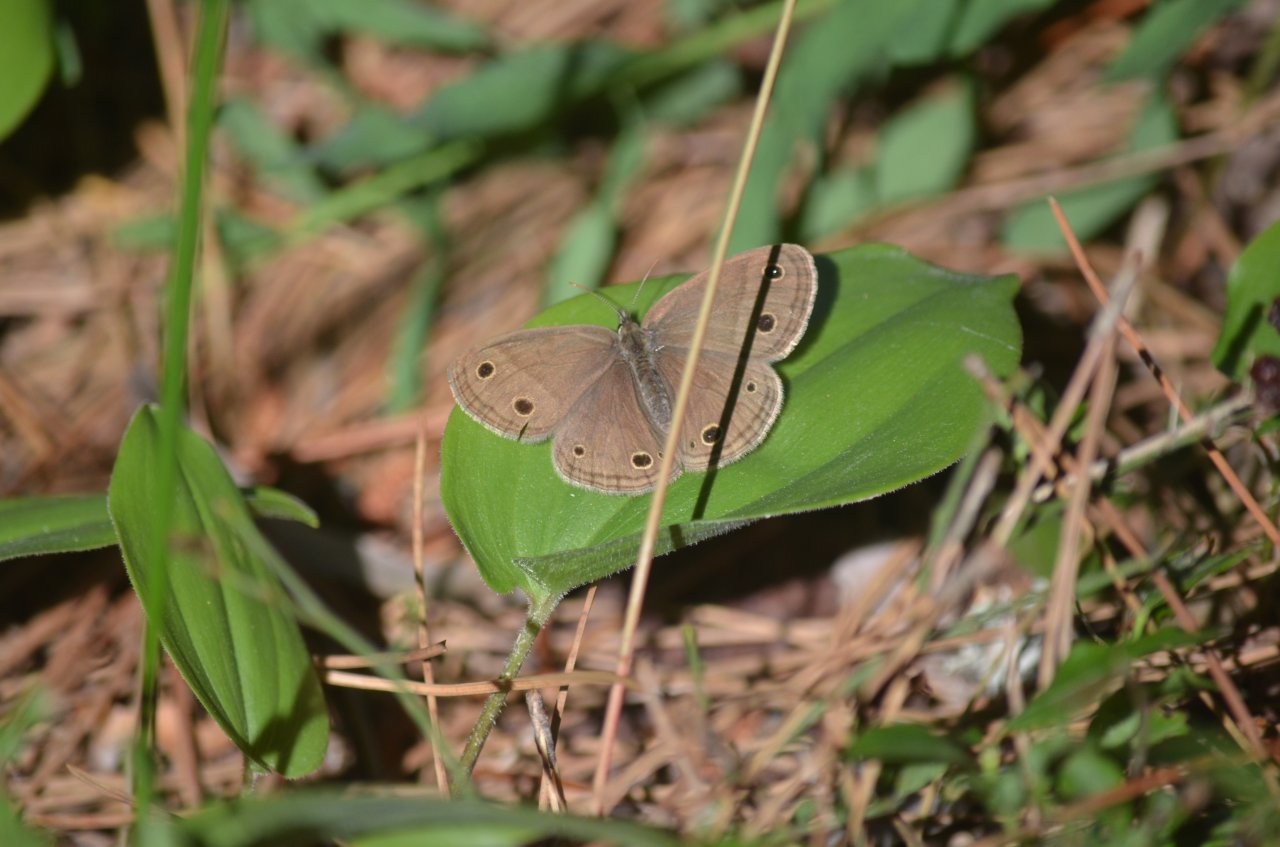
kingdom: Animalia
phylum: Arthropoda
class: Insecta
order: Lepidoptera
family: Nymphalidae
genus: Euptychia
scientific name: Euptychia cymela
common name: Little Wood Satyr
